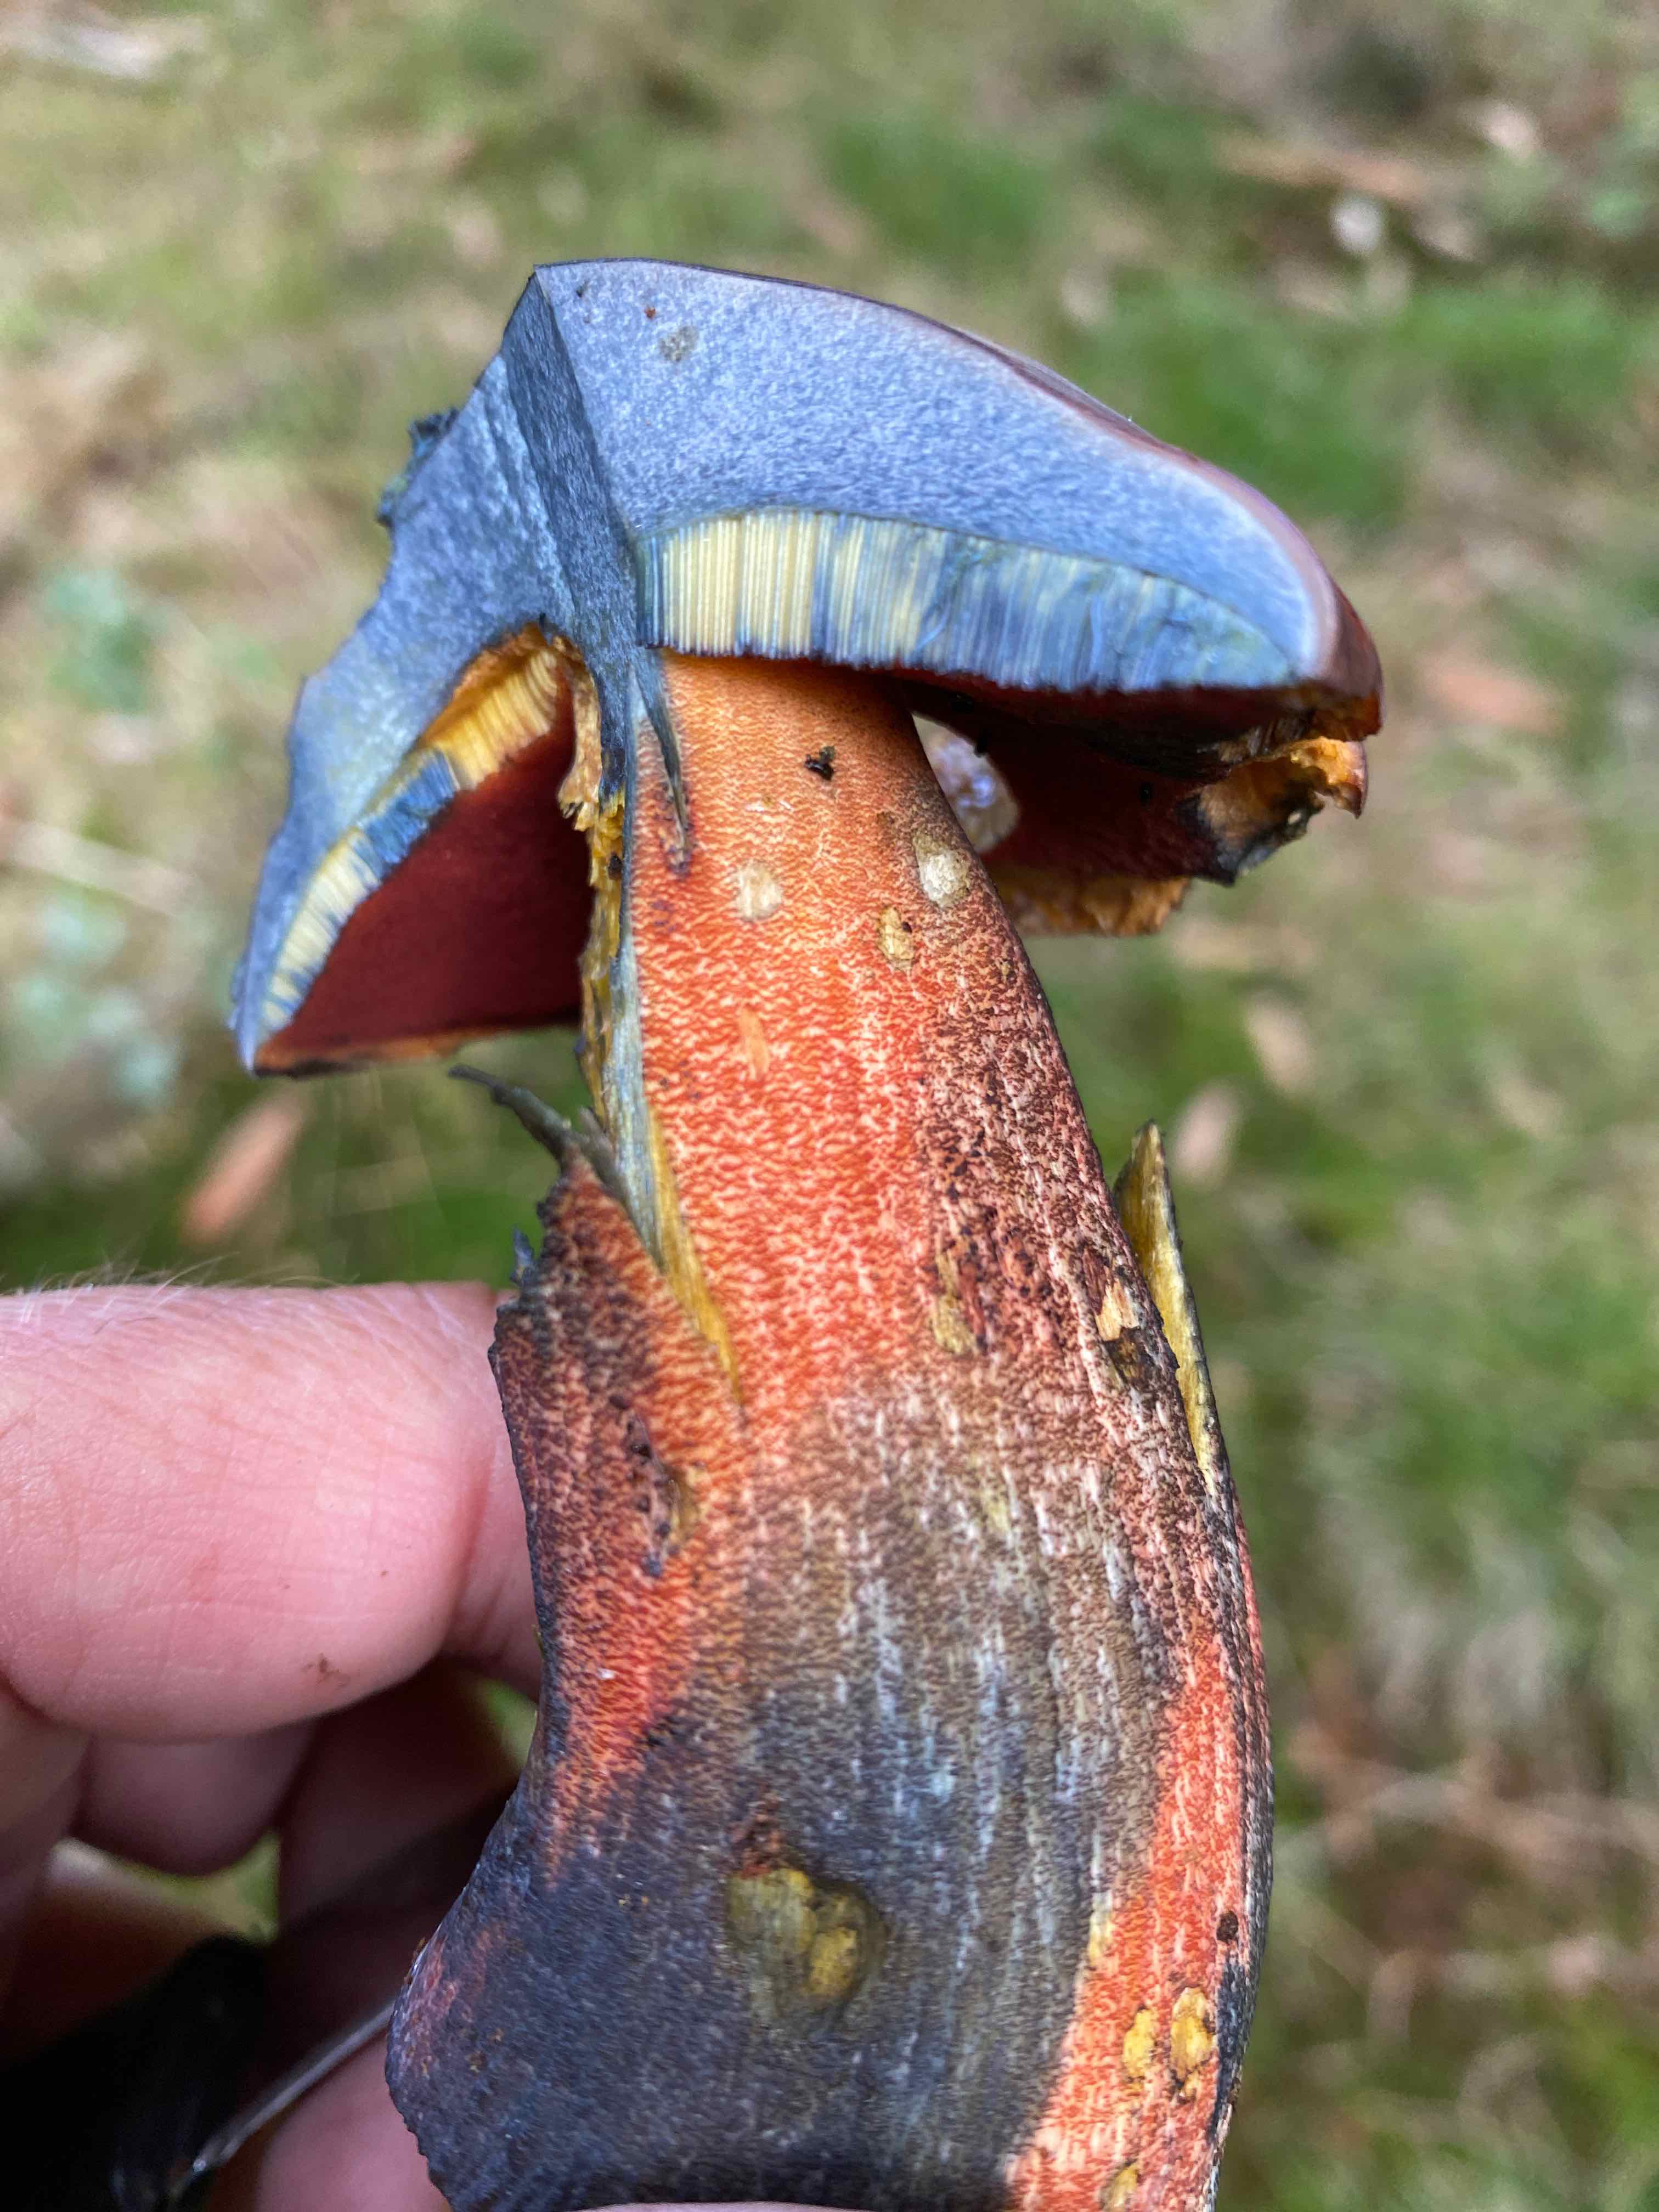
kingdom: Fungi
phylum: Basidiomycota
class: Agaricomycetes
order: Boletales
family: Boletaceae
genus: Neoboletus
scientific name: Neoboletus erythropus
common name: punktstokket indigorørhat
